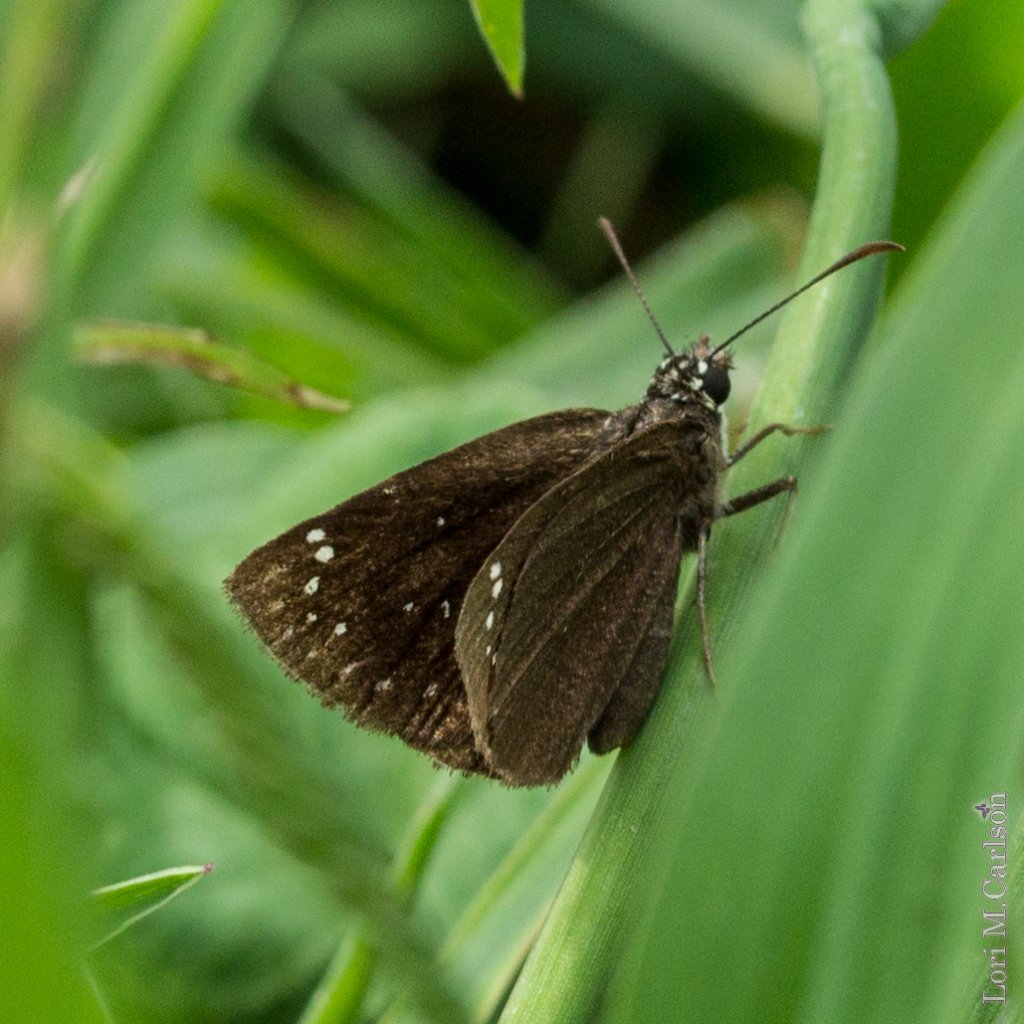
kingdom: Animalia
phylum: Arthropoda
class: Insecta
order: Lepidoptera
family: Hesperiidae
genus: Pholisora
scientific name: Pholisora catullus
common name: Common Sootywing
